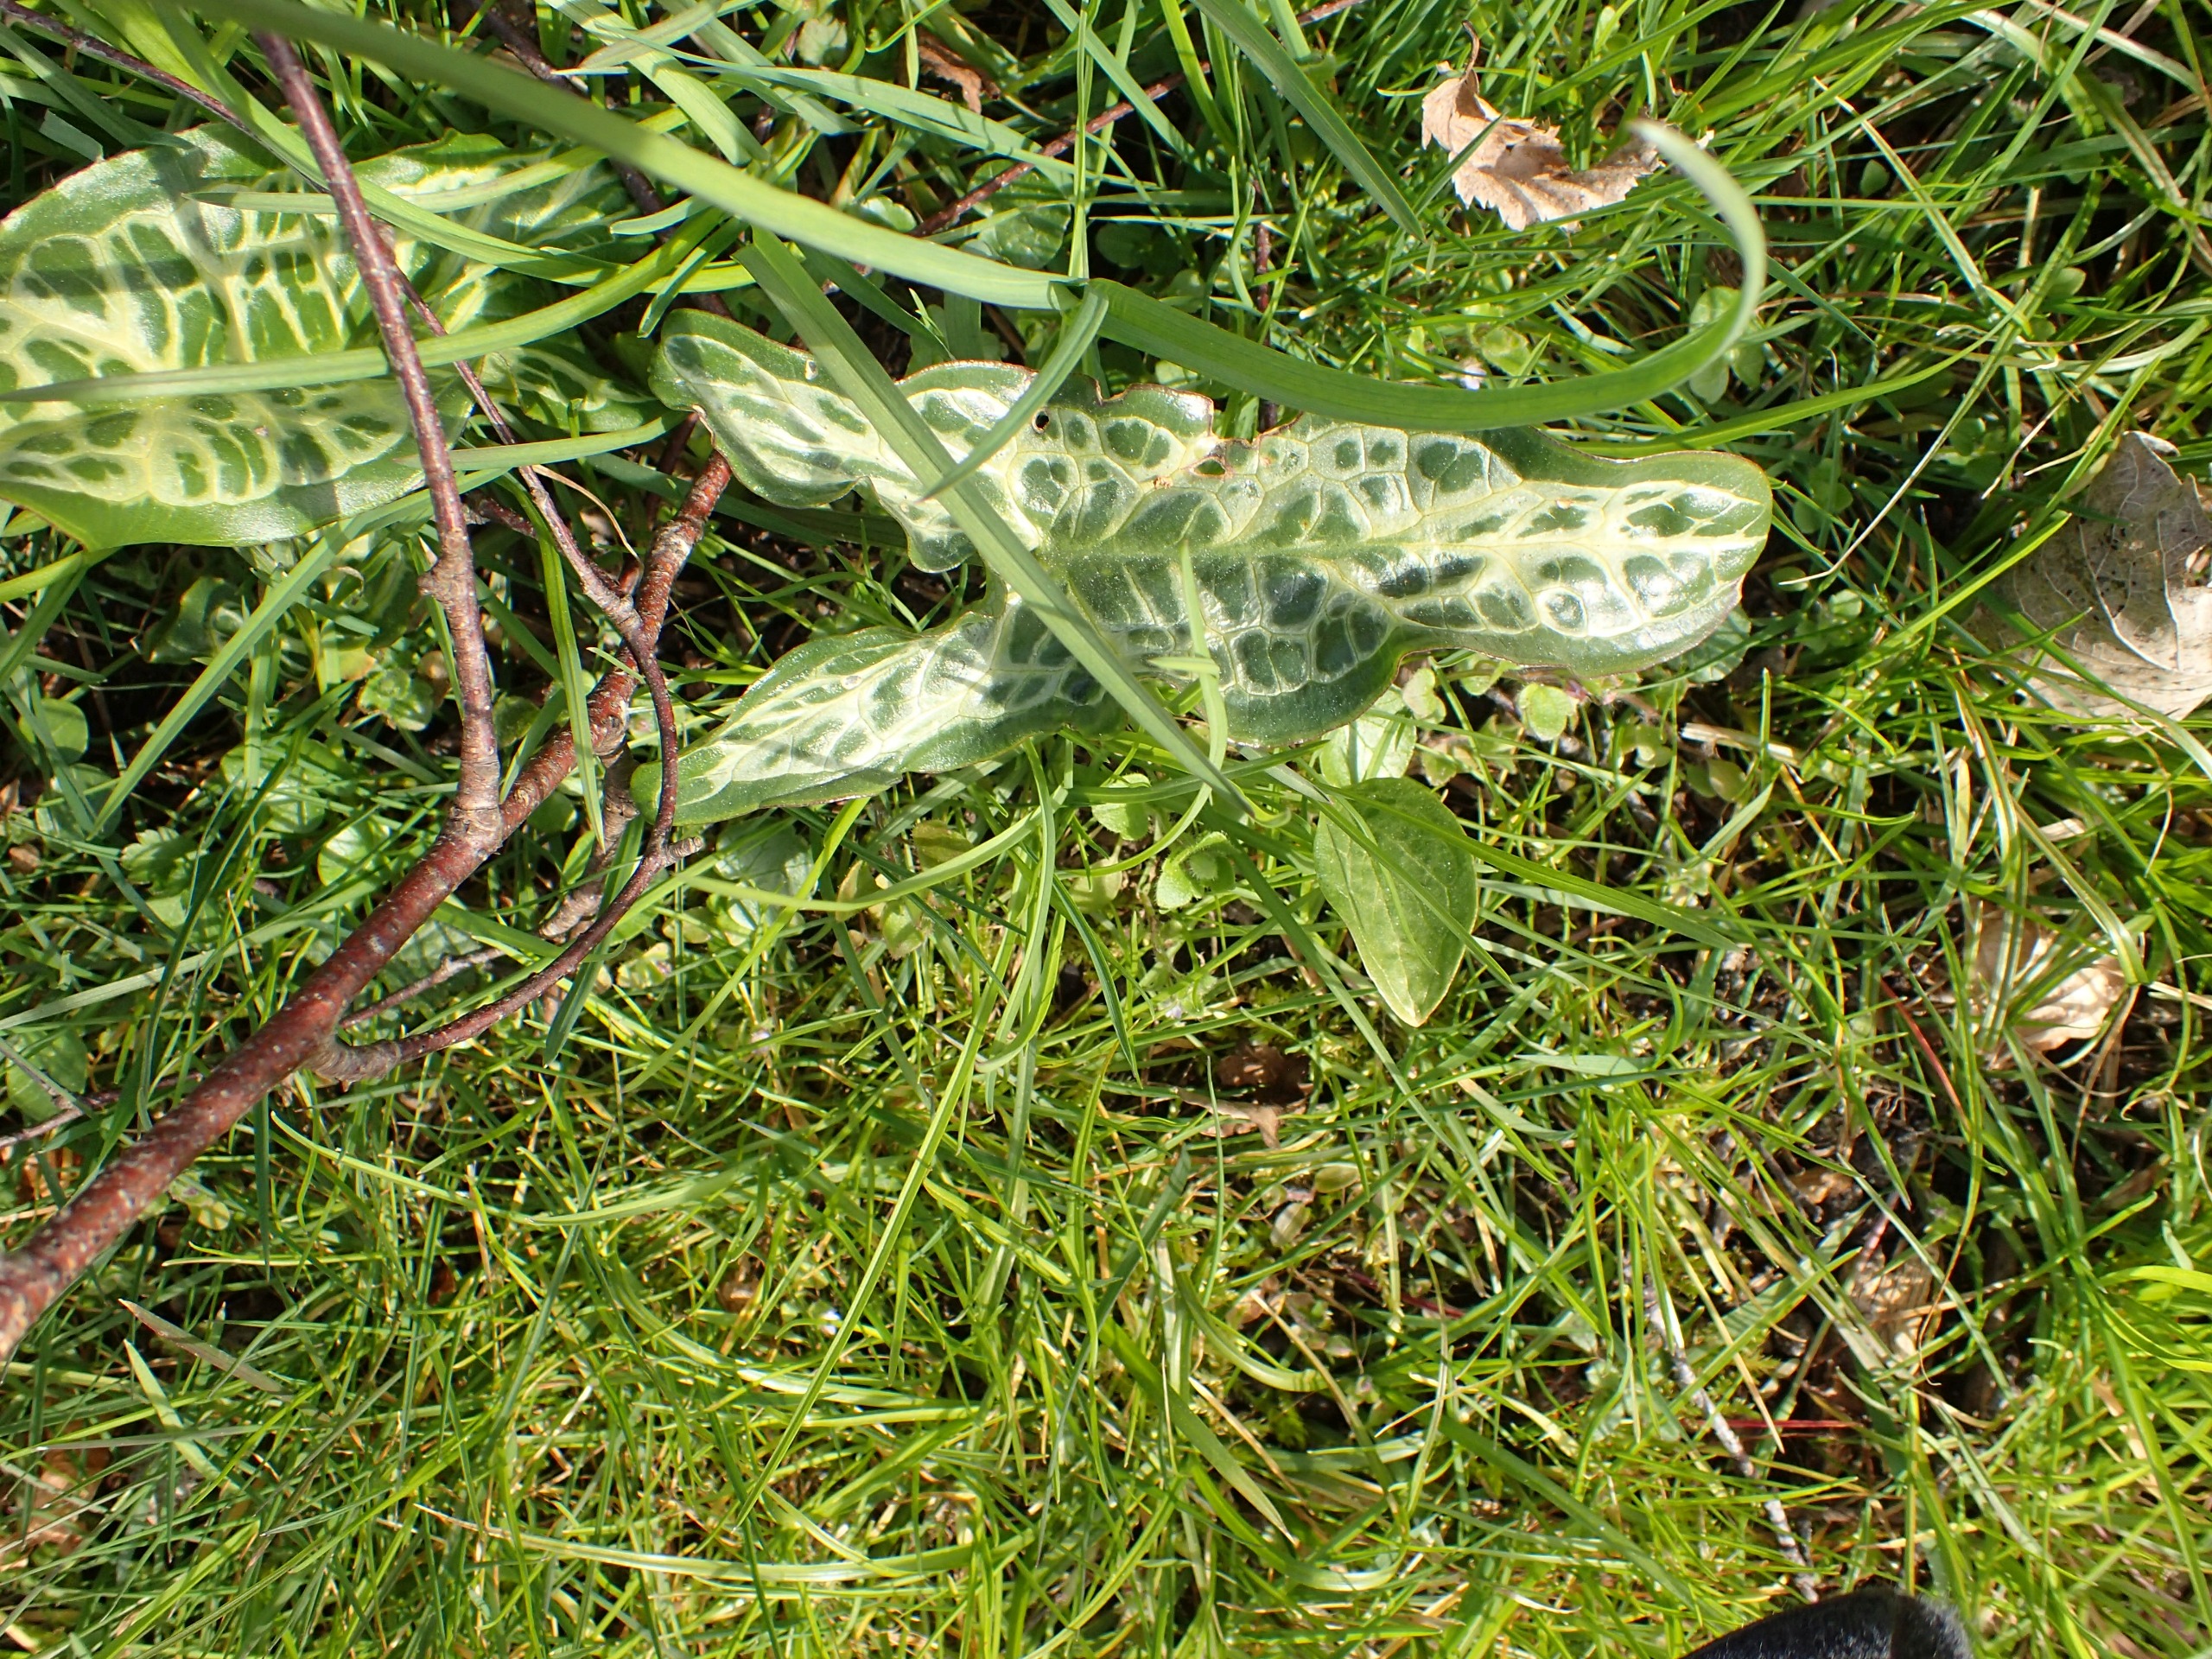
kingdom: Plantae
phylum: Tracheophyta
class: Liliopsida
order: Alismatales
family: Araceae
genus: Arum
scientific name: Arum italicum
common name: Italiensk arum
